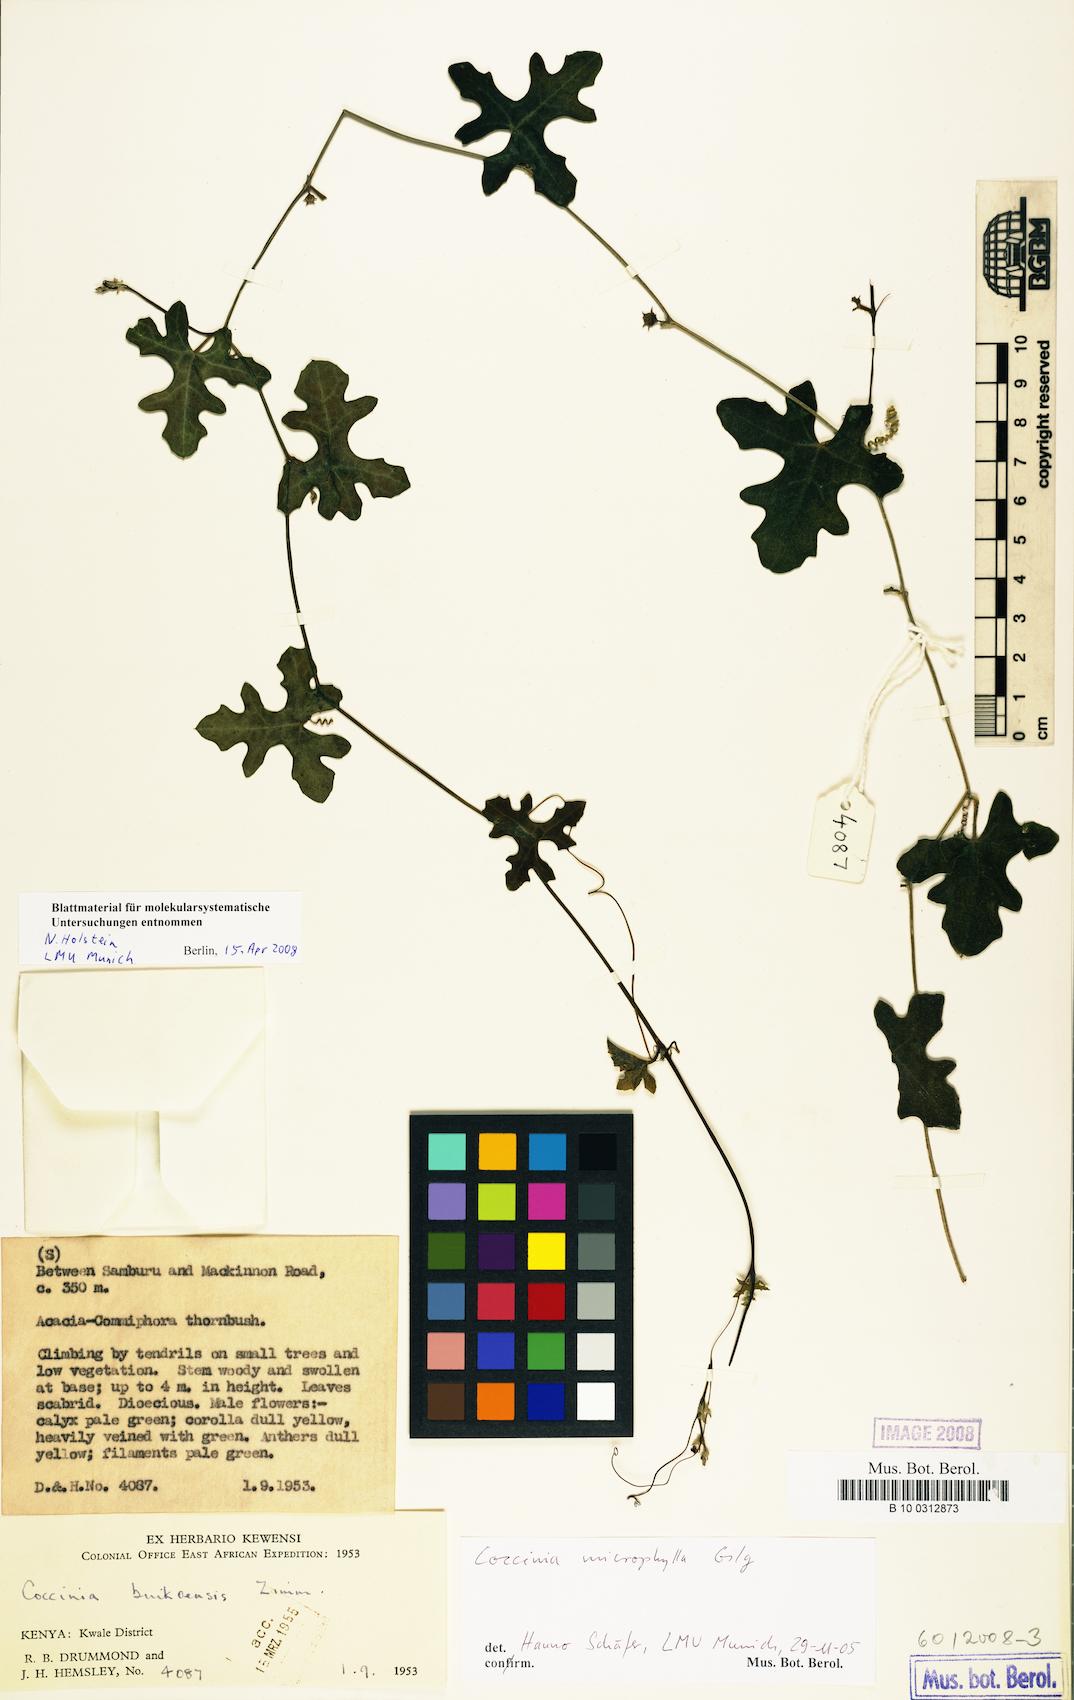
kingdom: Plantae
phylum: Tracheophyta
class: Magnoliopsida
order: Cucurbitales
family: Cucurbitaceae
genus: Coccinia
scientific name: Coccinia microphylla
